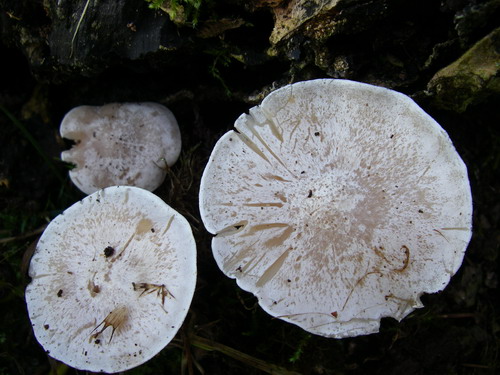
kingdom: Fungi
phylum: Basidiomycota
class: Agaricomycetes
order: Agaricales
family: Tricholomataceae
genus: Clitocybe
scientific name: Clitocybe phyllophila
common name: løv-tragthat
